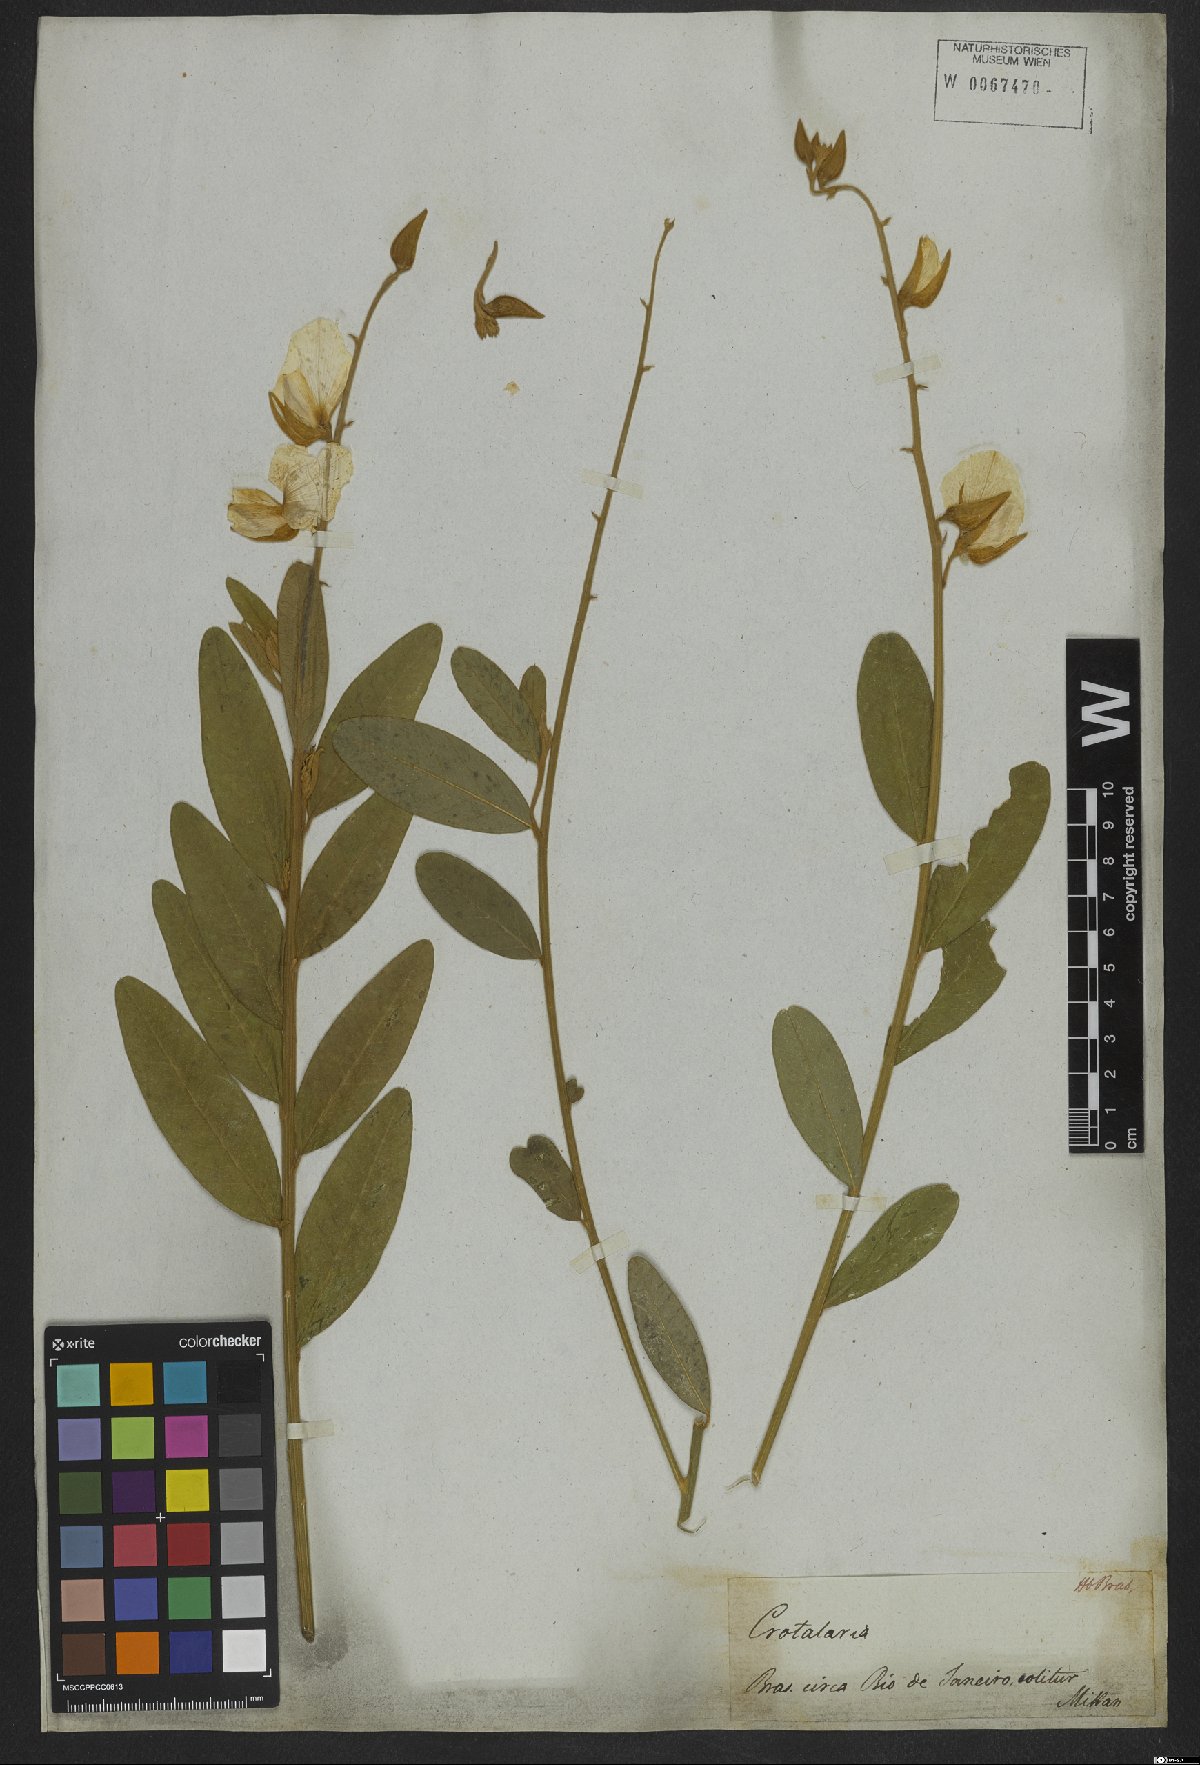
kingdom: Plantae
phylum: Tracheophyta
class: Magnoliopsida
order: Fabales
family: Fabaceae
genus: Crotalaria
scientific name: Crotalaria breviflora
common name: Short-flower crotalaria
